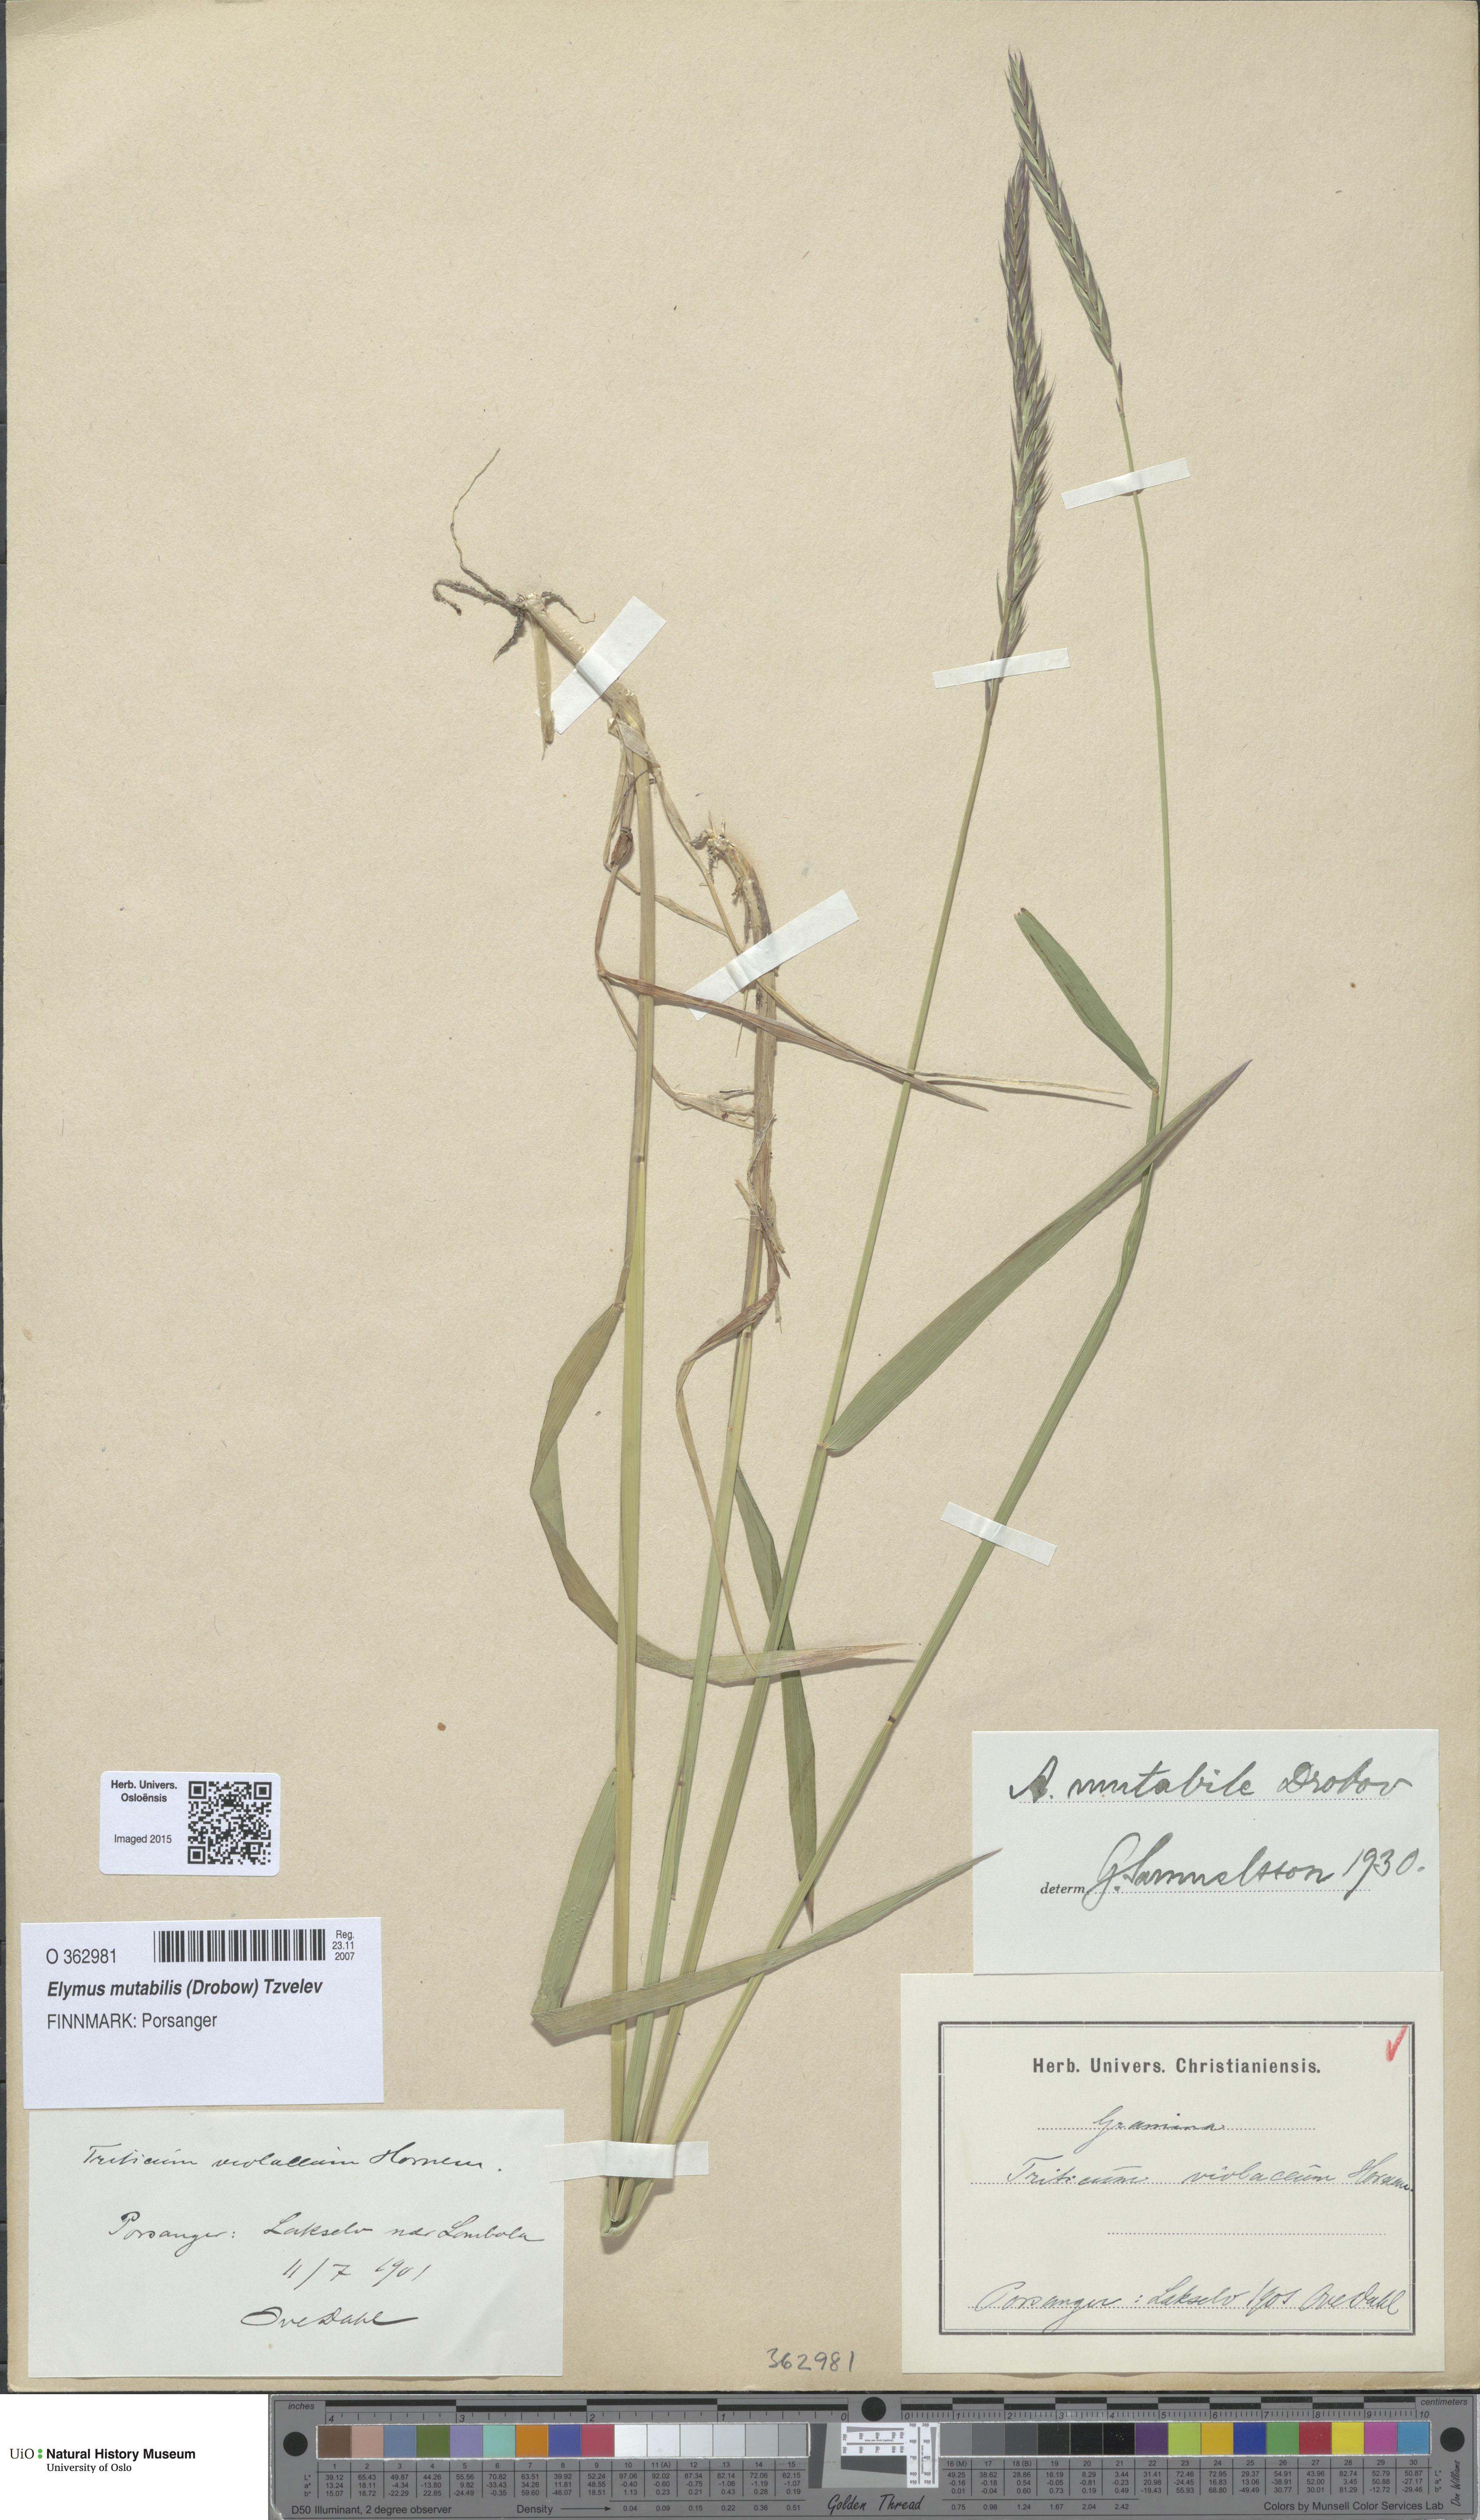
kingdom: Plantae
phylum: Tracheophyta
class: Liliopsida
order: Poales
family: Poaceae
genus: Elymus
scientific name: Elymus mutabilis
